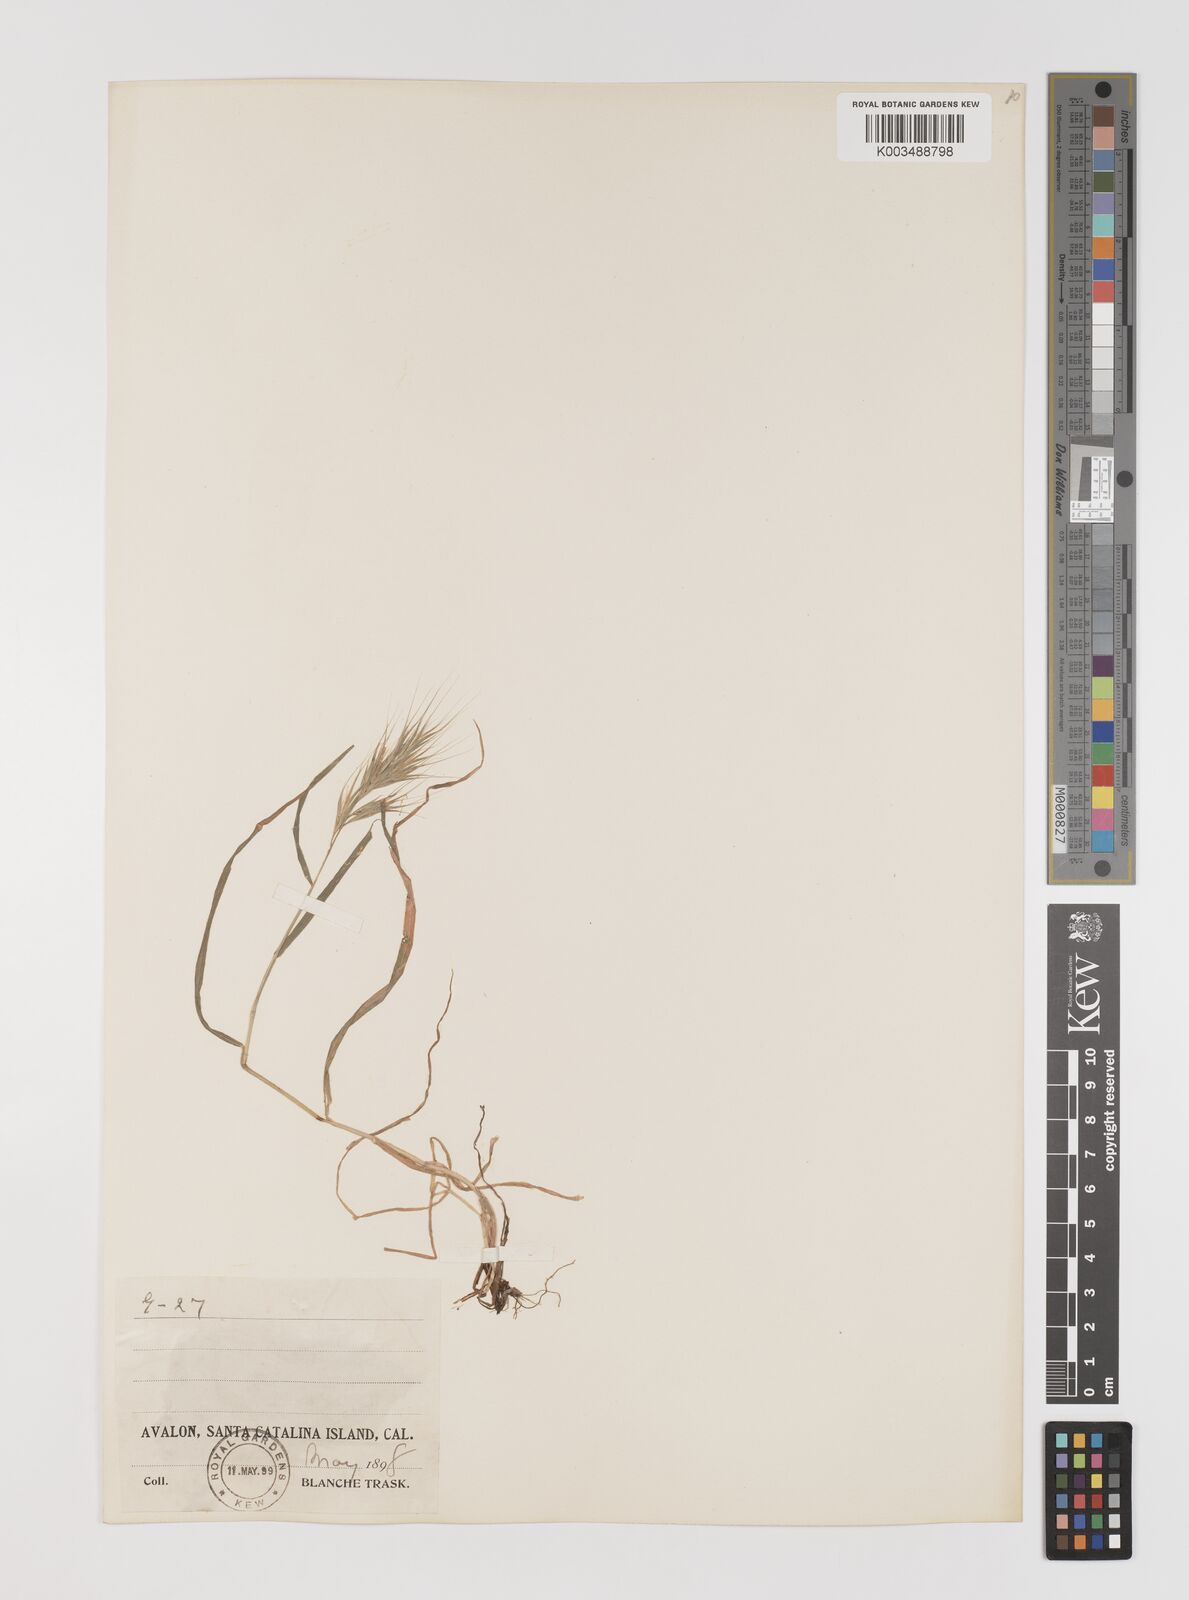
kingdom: Plantae
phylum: Tracheophyta
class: Liliopsida
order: Poales
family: Poaceae
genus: Bromus
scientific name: Bromus
